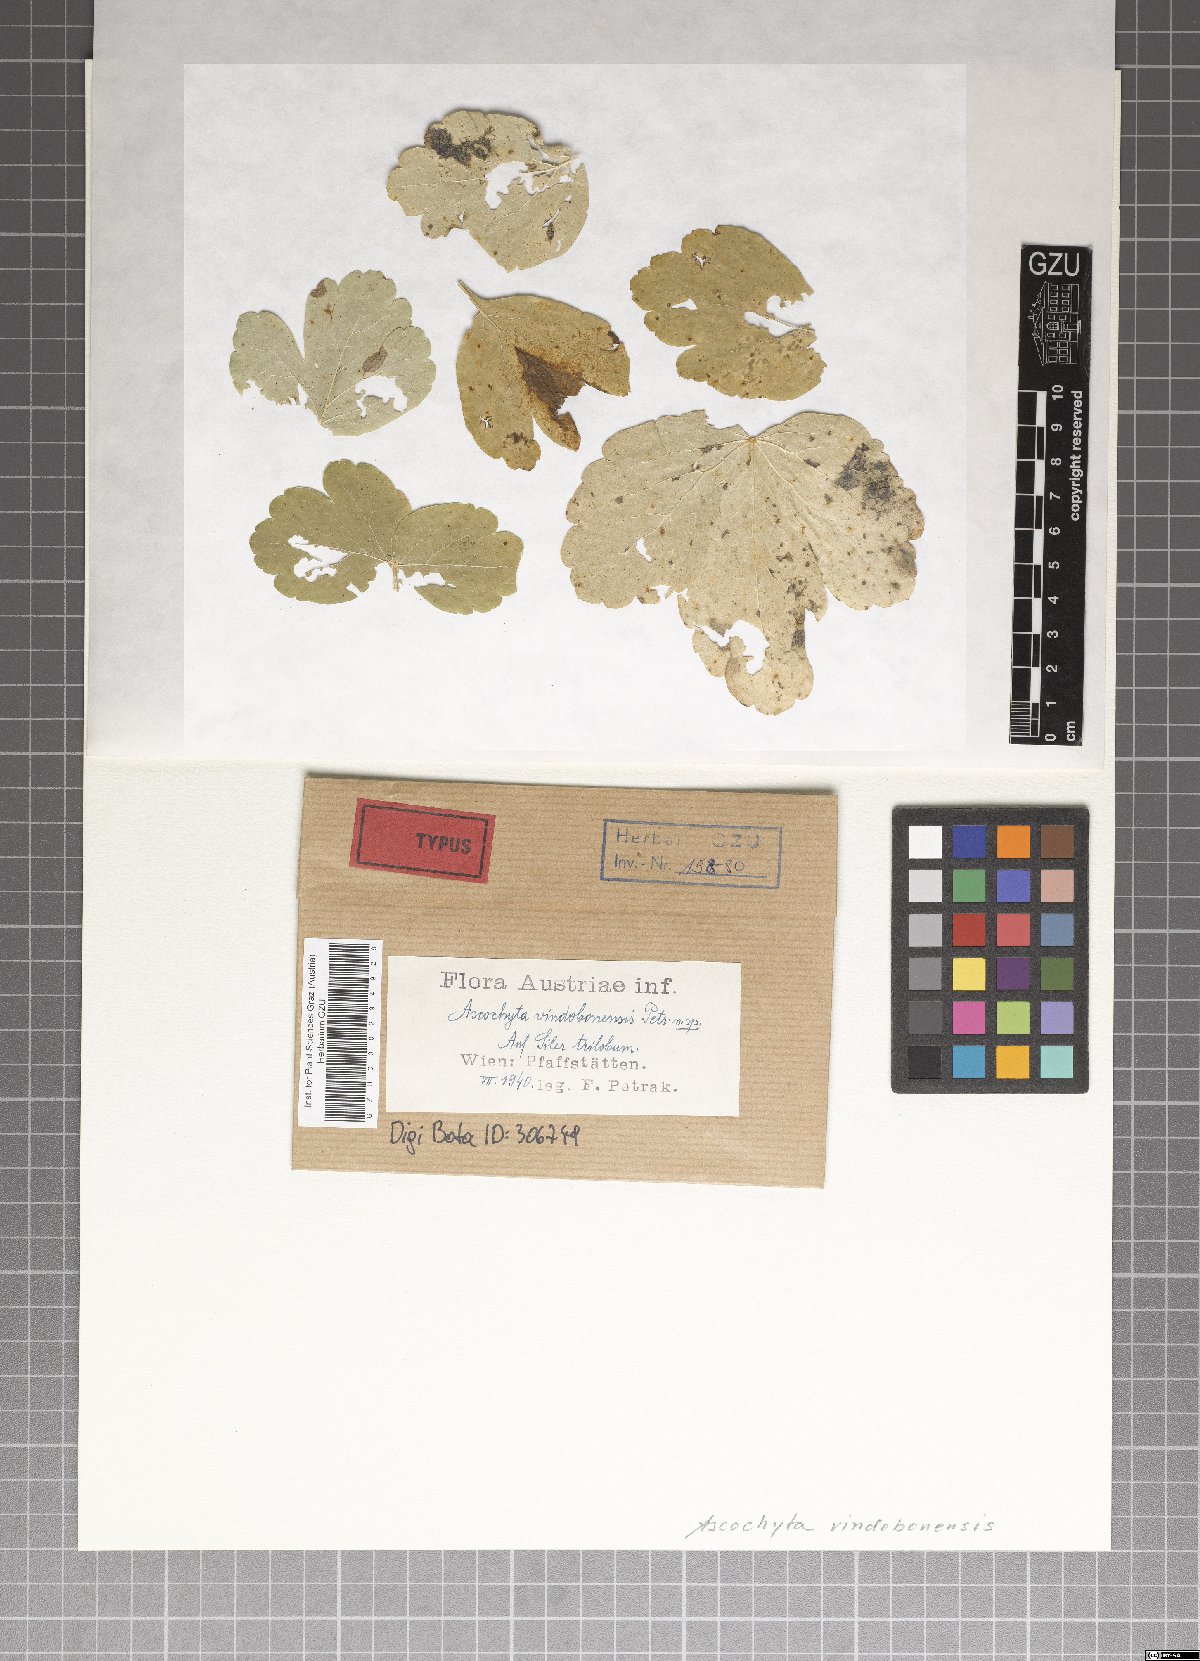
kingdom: Fungi
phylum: Ascomycota
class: Dothideomycetes
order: Pleosporales
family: Didymellaceae
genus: Ascochyta
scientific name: Ascochyta vindobonensis
